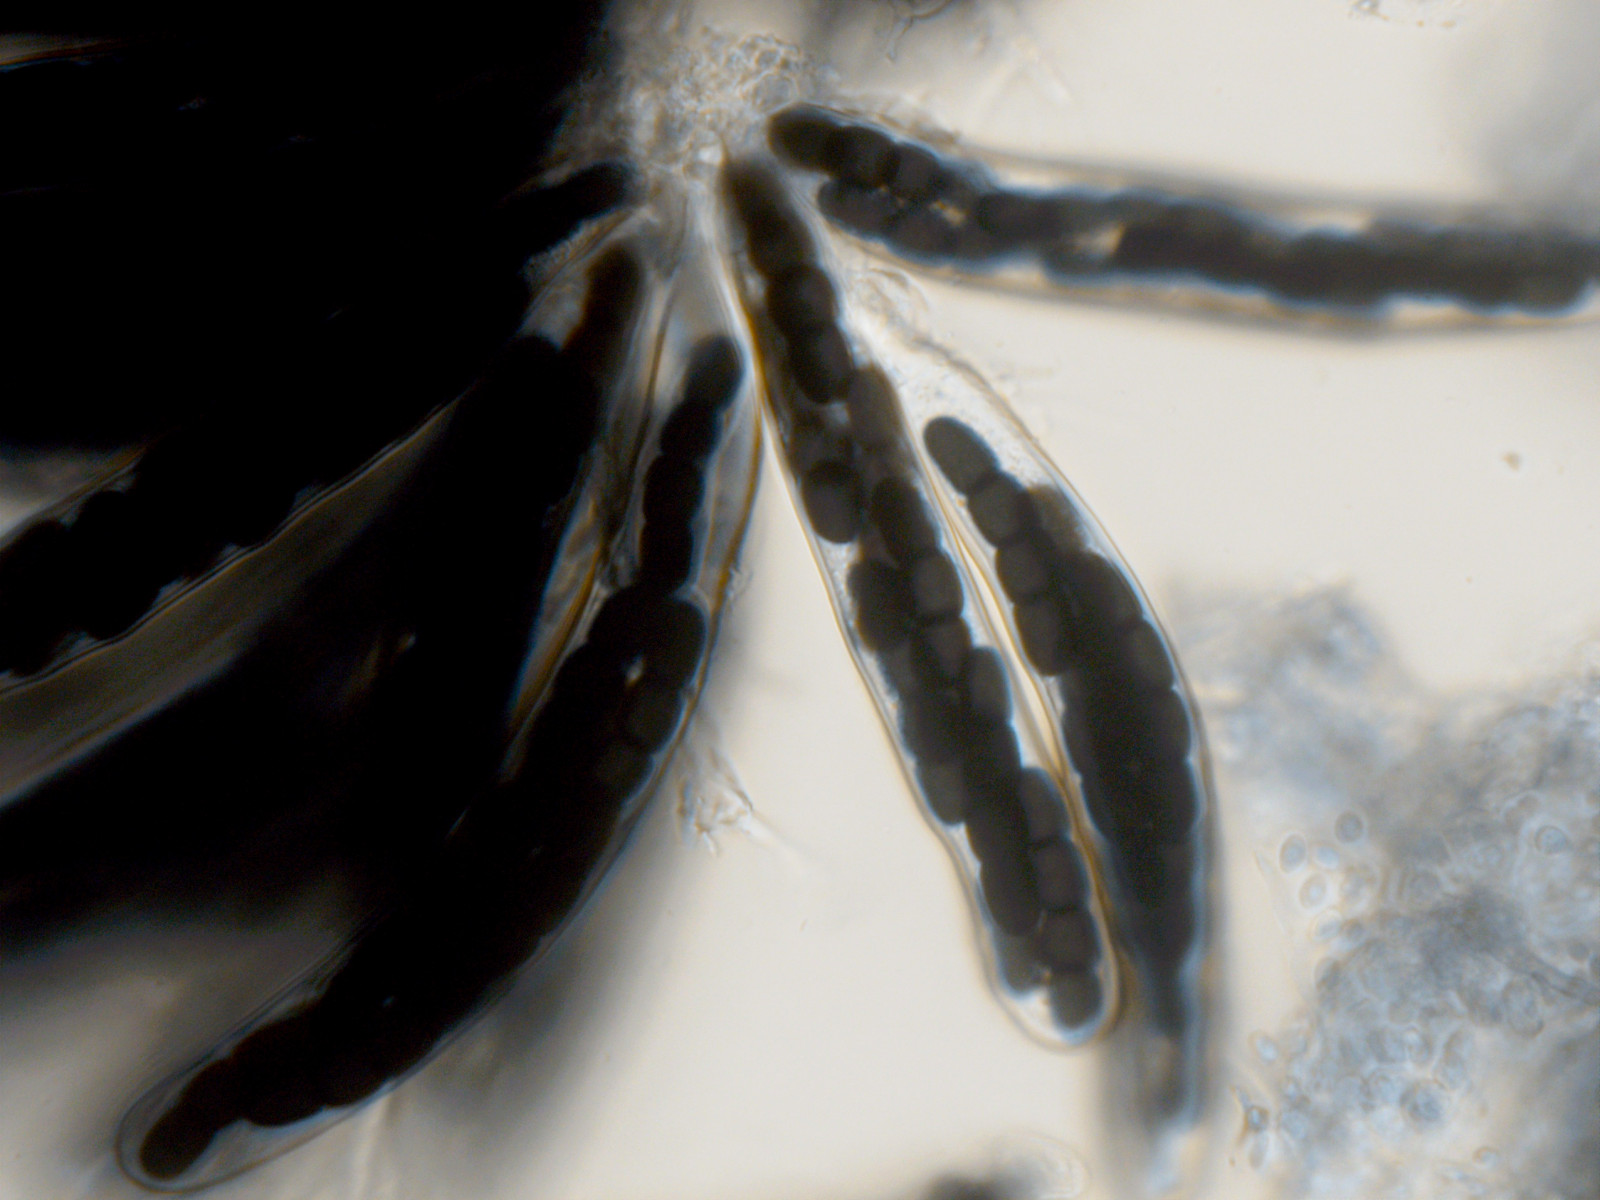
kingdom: Fungi
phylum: Ascomycota
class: Dothideomycetes
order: Pleosporales
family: Sporormiaceae
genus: Sporormiella
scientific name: Sporormiella intermedia
